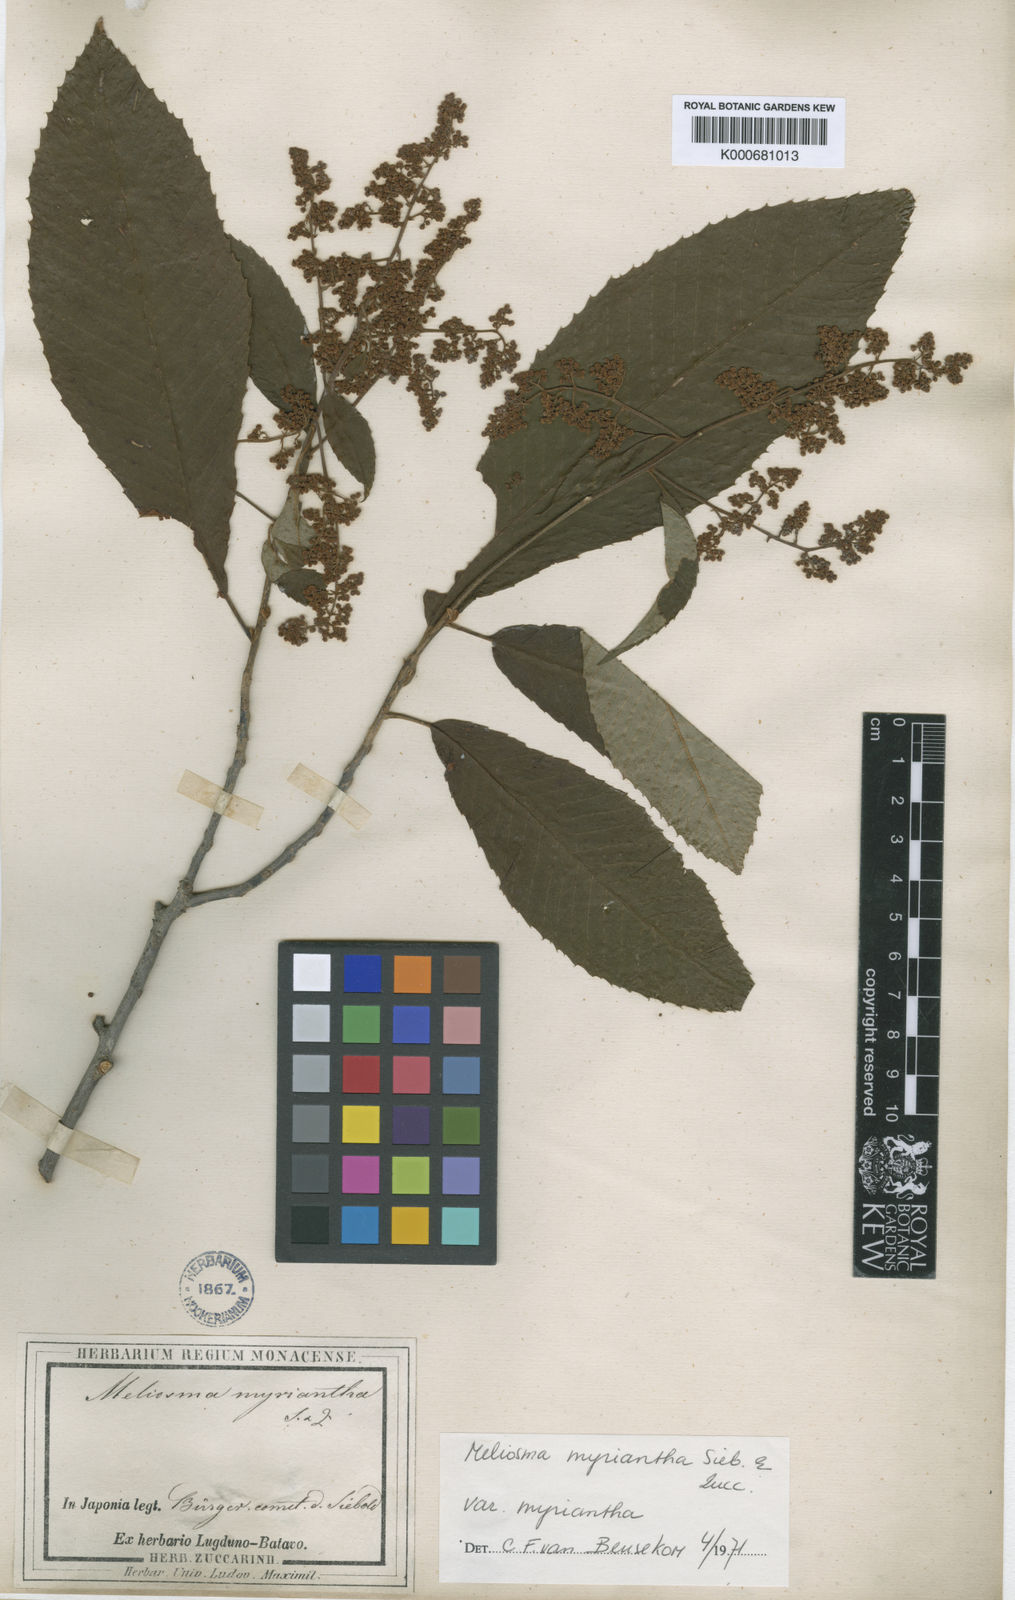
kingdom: Plantae
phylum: Tracheophyta
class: Magnoliopsida
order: Proteales
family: Sabiaceae
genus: Meliosma
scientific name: Meliosma myriantha
